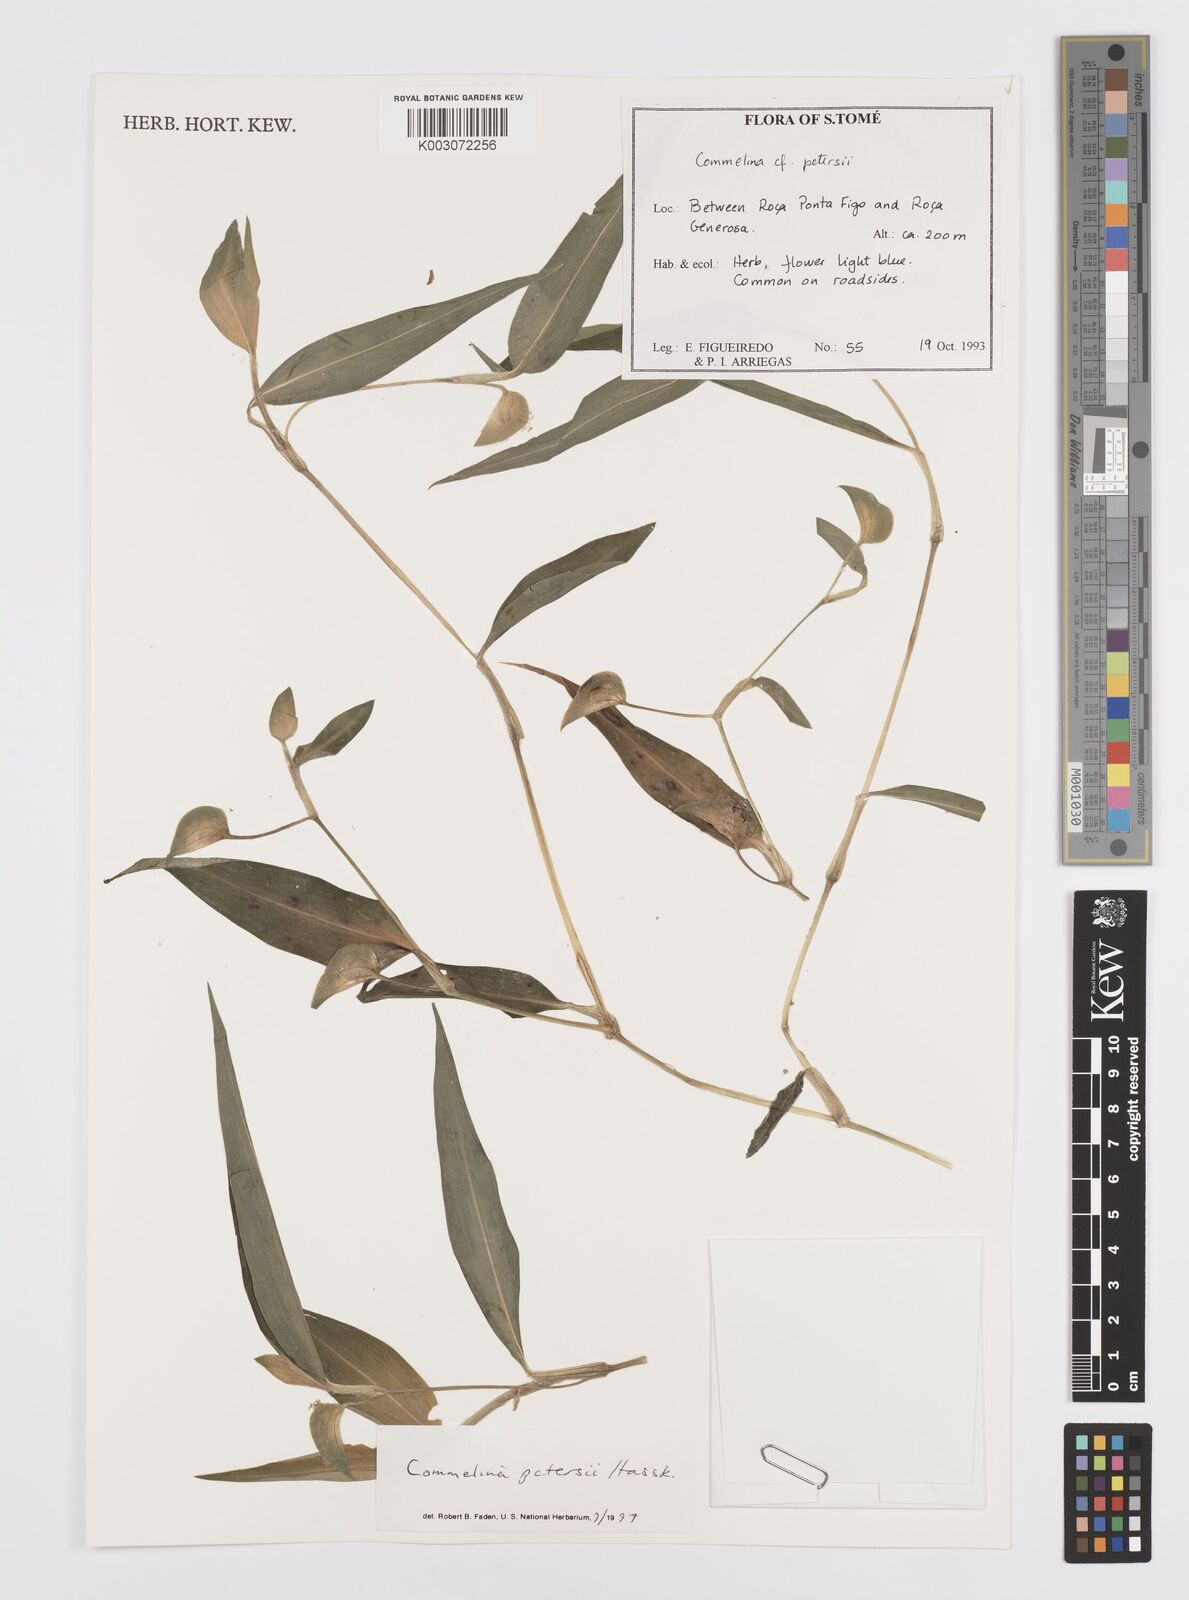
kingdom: Plantae
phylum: Tracheophyta
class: Liliopsida
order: Commelinales
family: Commelinaceae
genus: Commelina
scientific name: Commelina petersii
